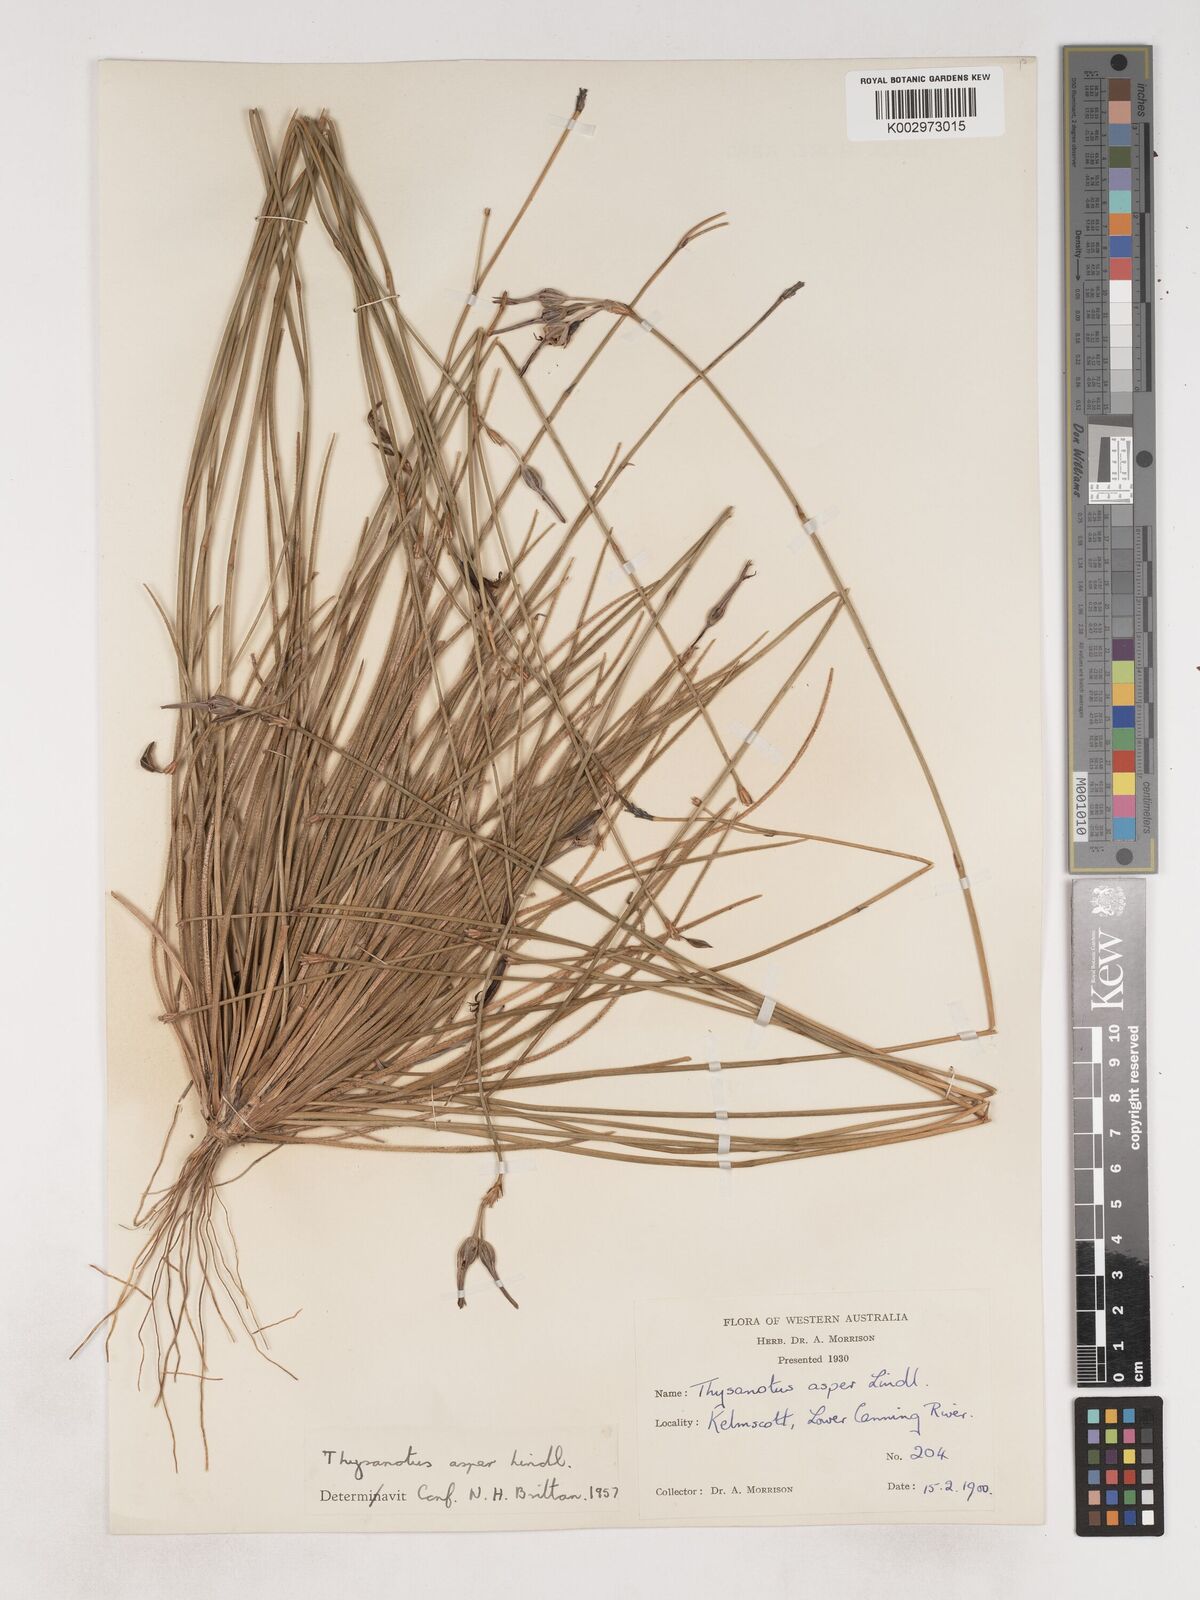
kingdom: Plantae
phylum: Tracheophyta
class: Liliopsida
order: Asparagales
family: Asparagaceae
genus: Thysanotus
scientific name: Thysanotus asper
